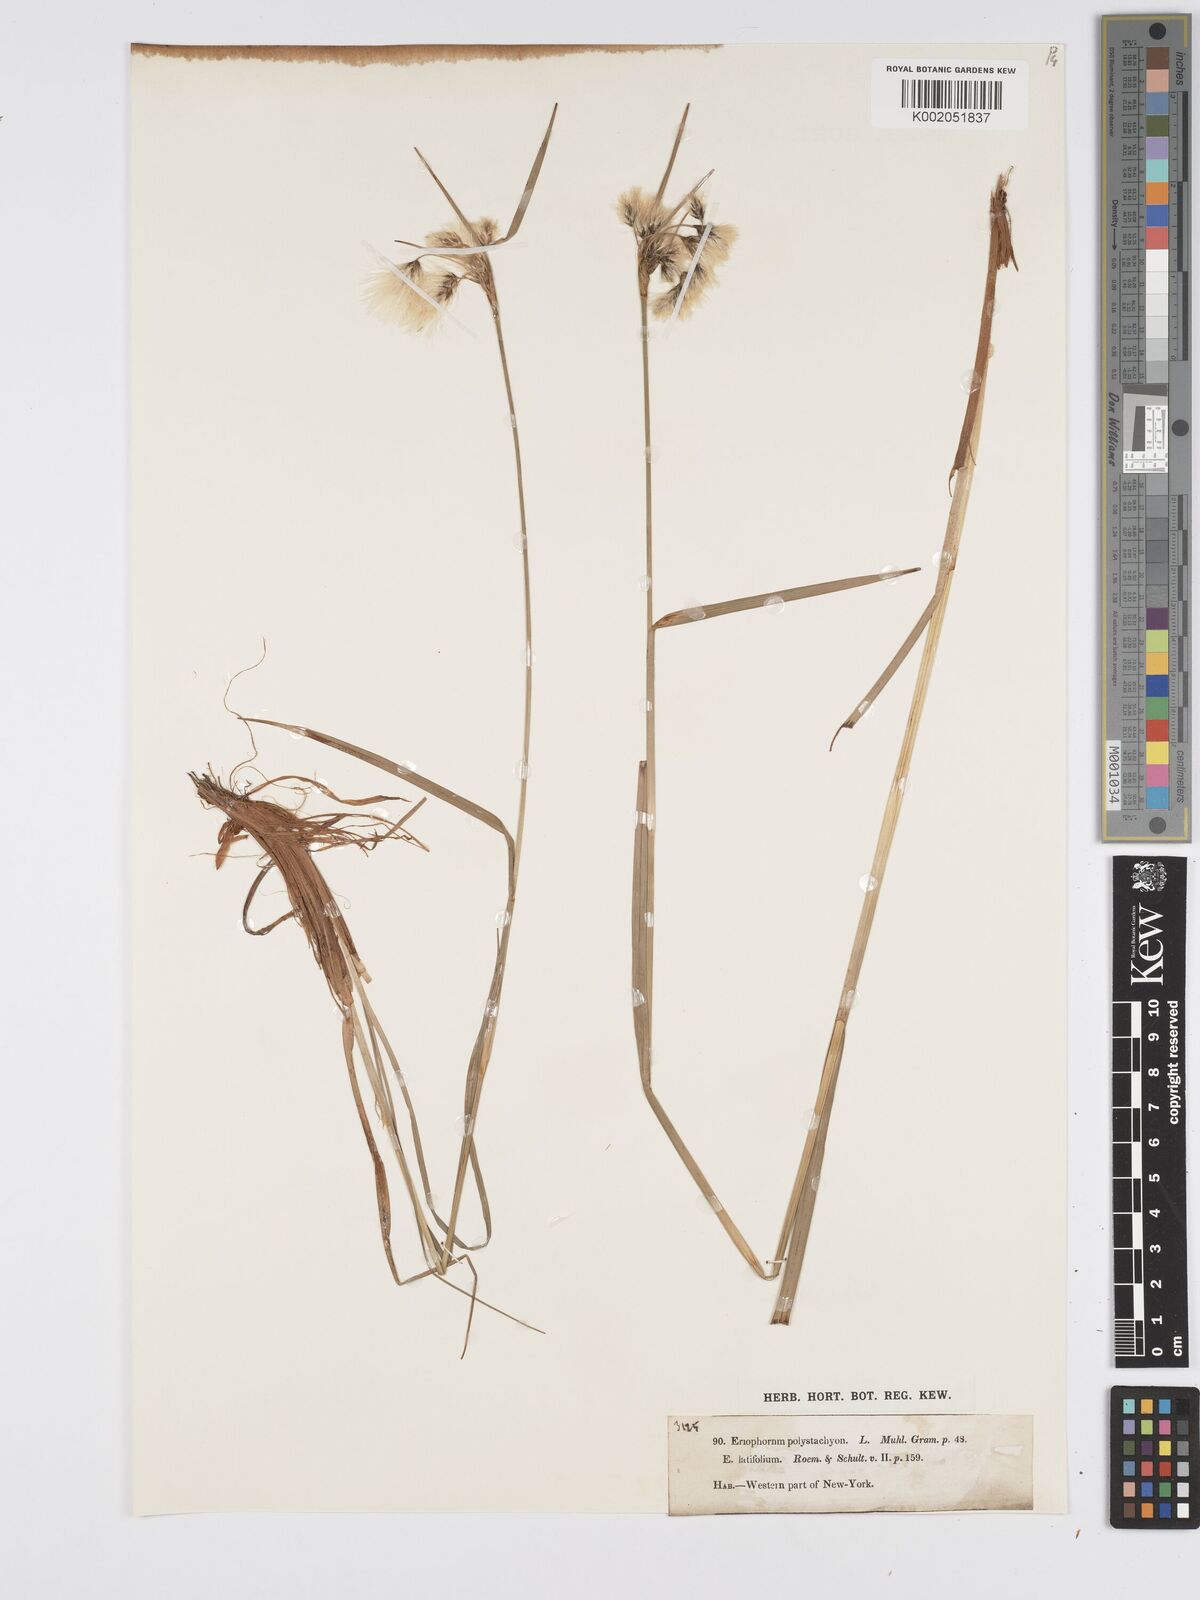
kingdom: Plantae
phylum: Tracheophyta
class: Liliopsida
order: Poales
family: Cyperaceae
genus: Eriophorum
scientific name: Eriophorum angustifolium
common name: Common cottongrass
